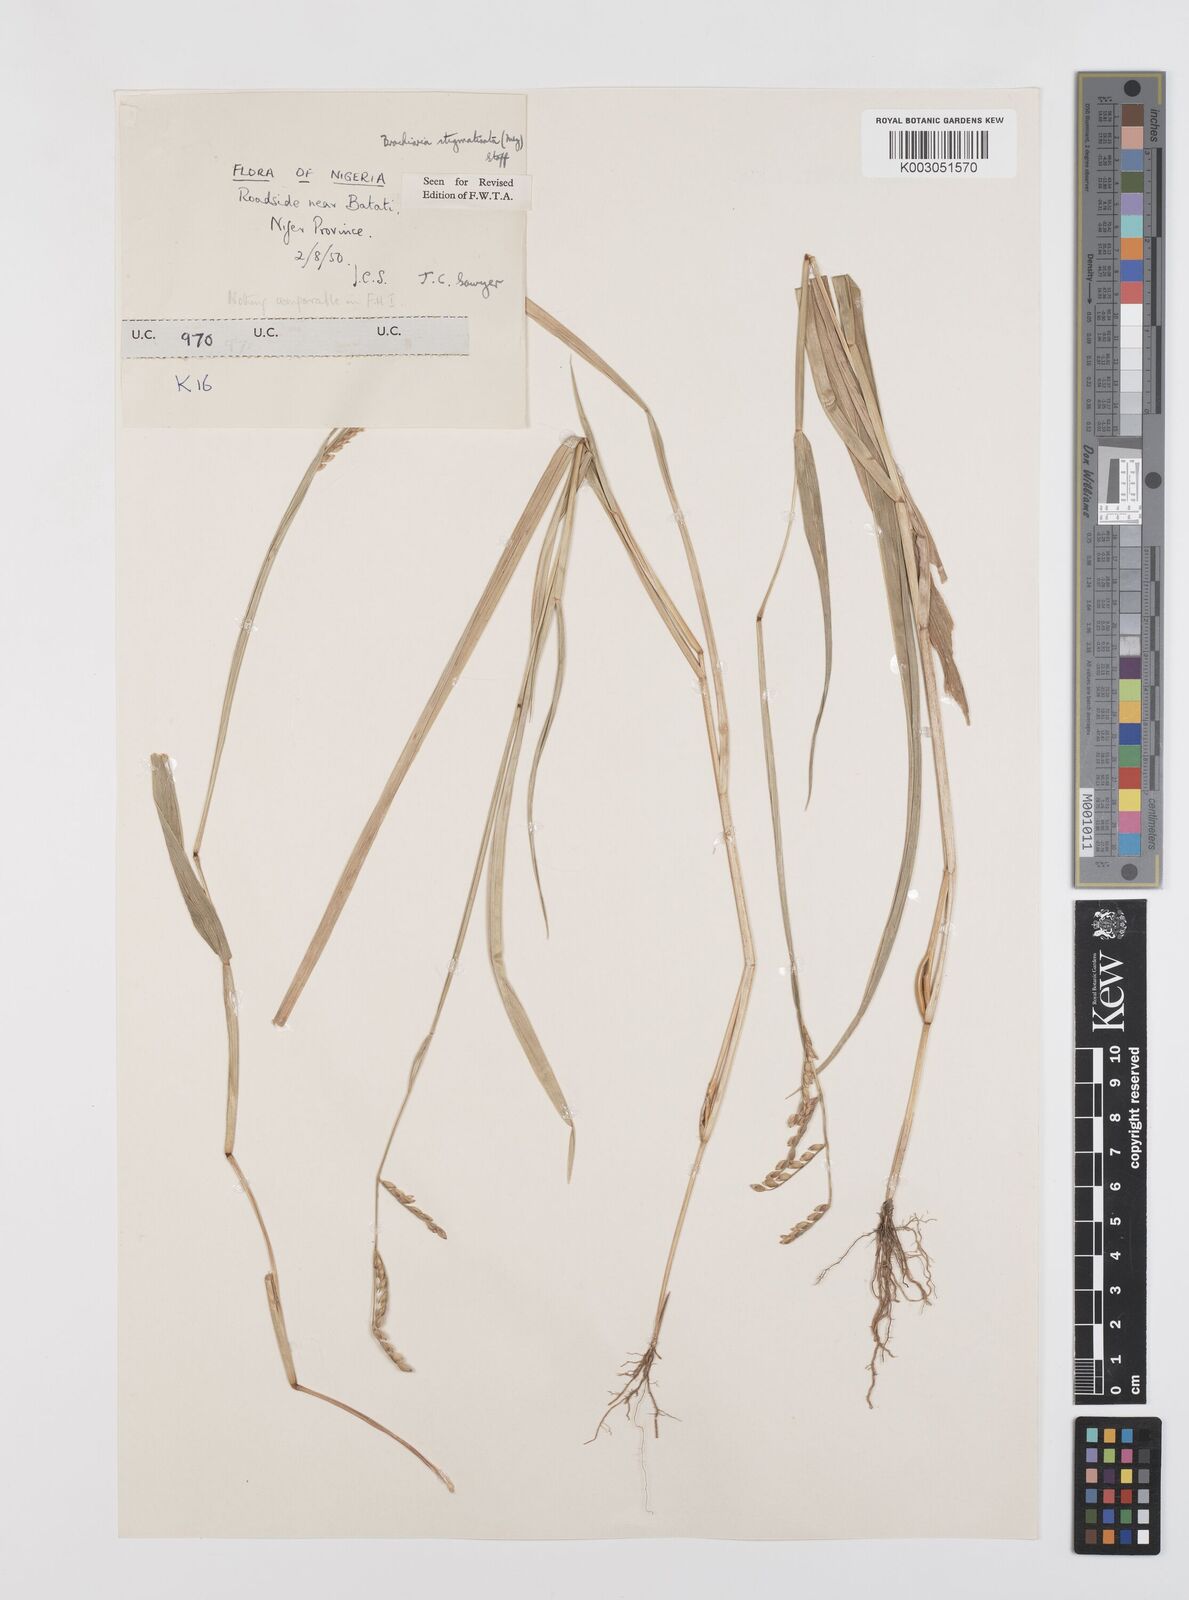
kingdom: Plantae
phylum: Tracheophyta
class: Liliopsida
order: Poales
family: Poaceae
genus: Urochloa
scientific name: Urochloa stigmatisata
